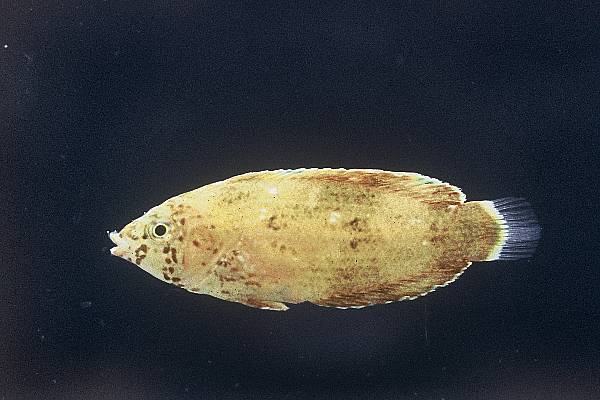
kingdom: Animalia
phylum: Chordata
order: Perciformes
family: Labridae
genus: Anampses
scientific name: Anampses caeruleopunctatus
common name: Bluespotted wrasse
